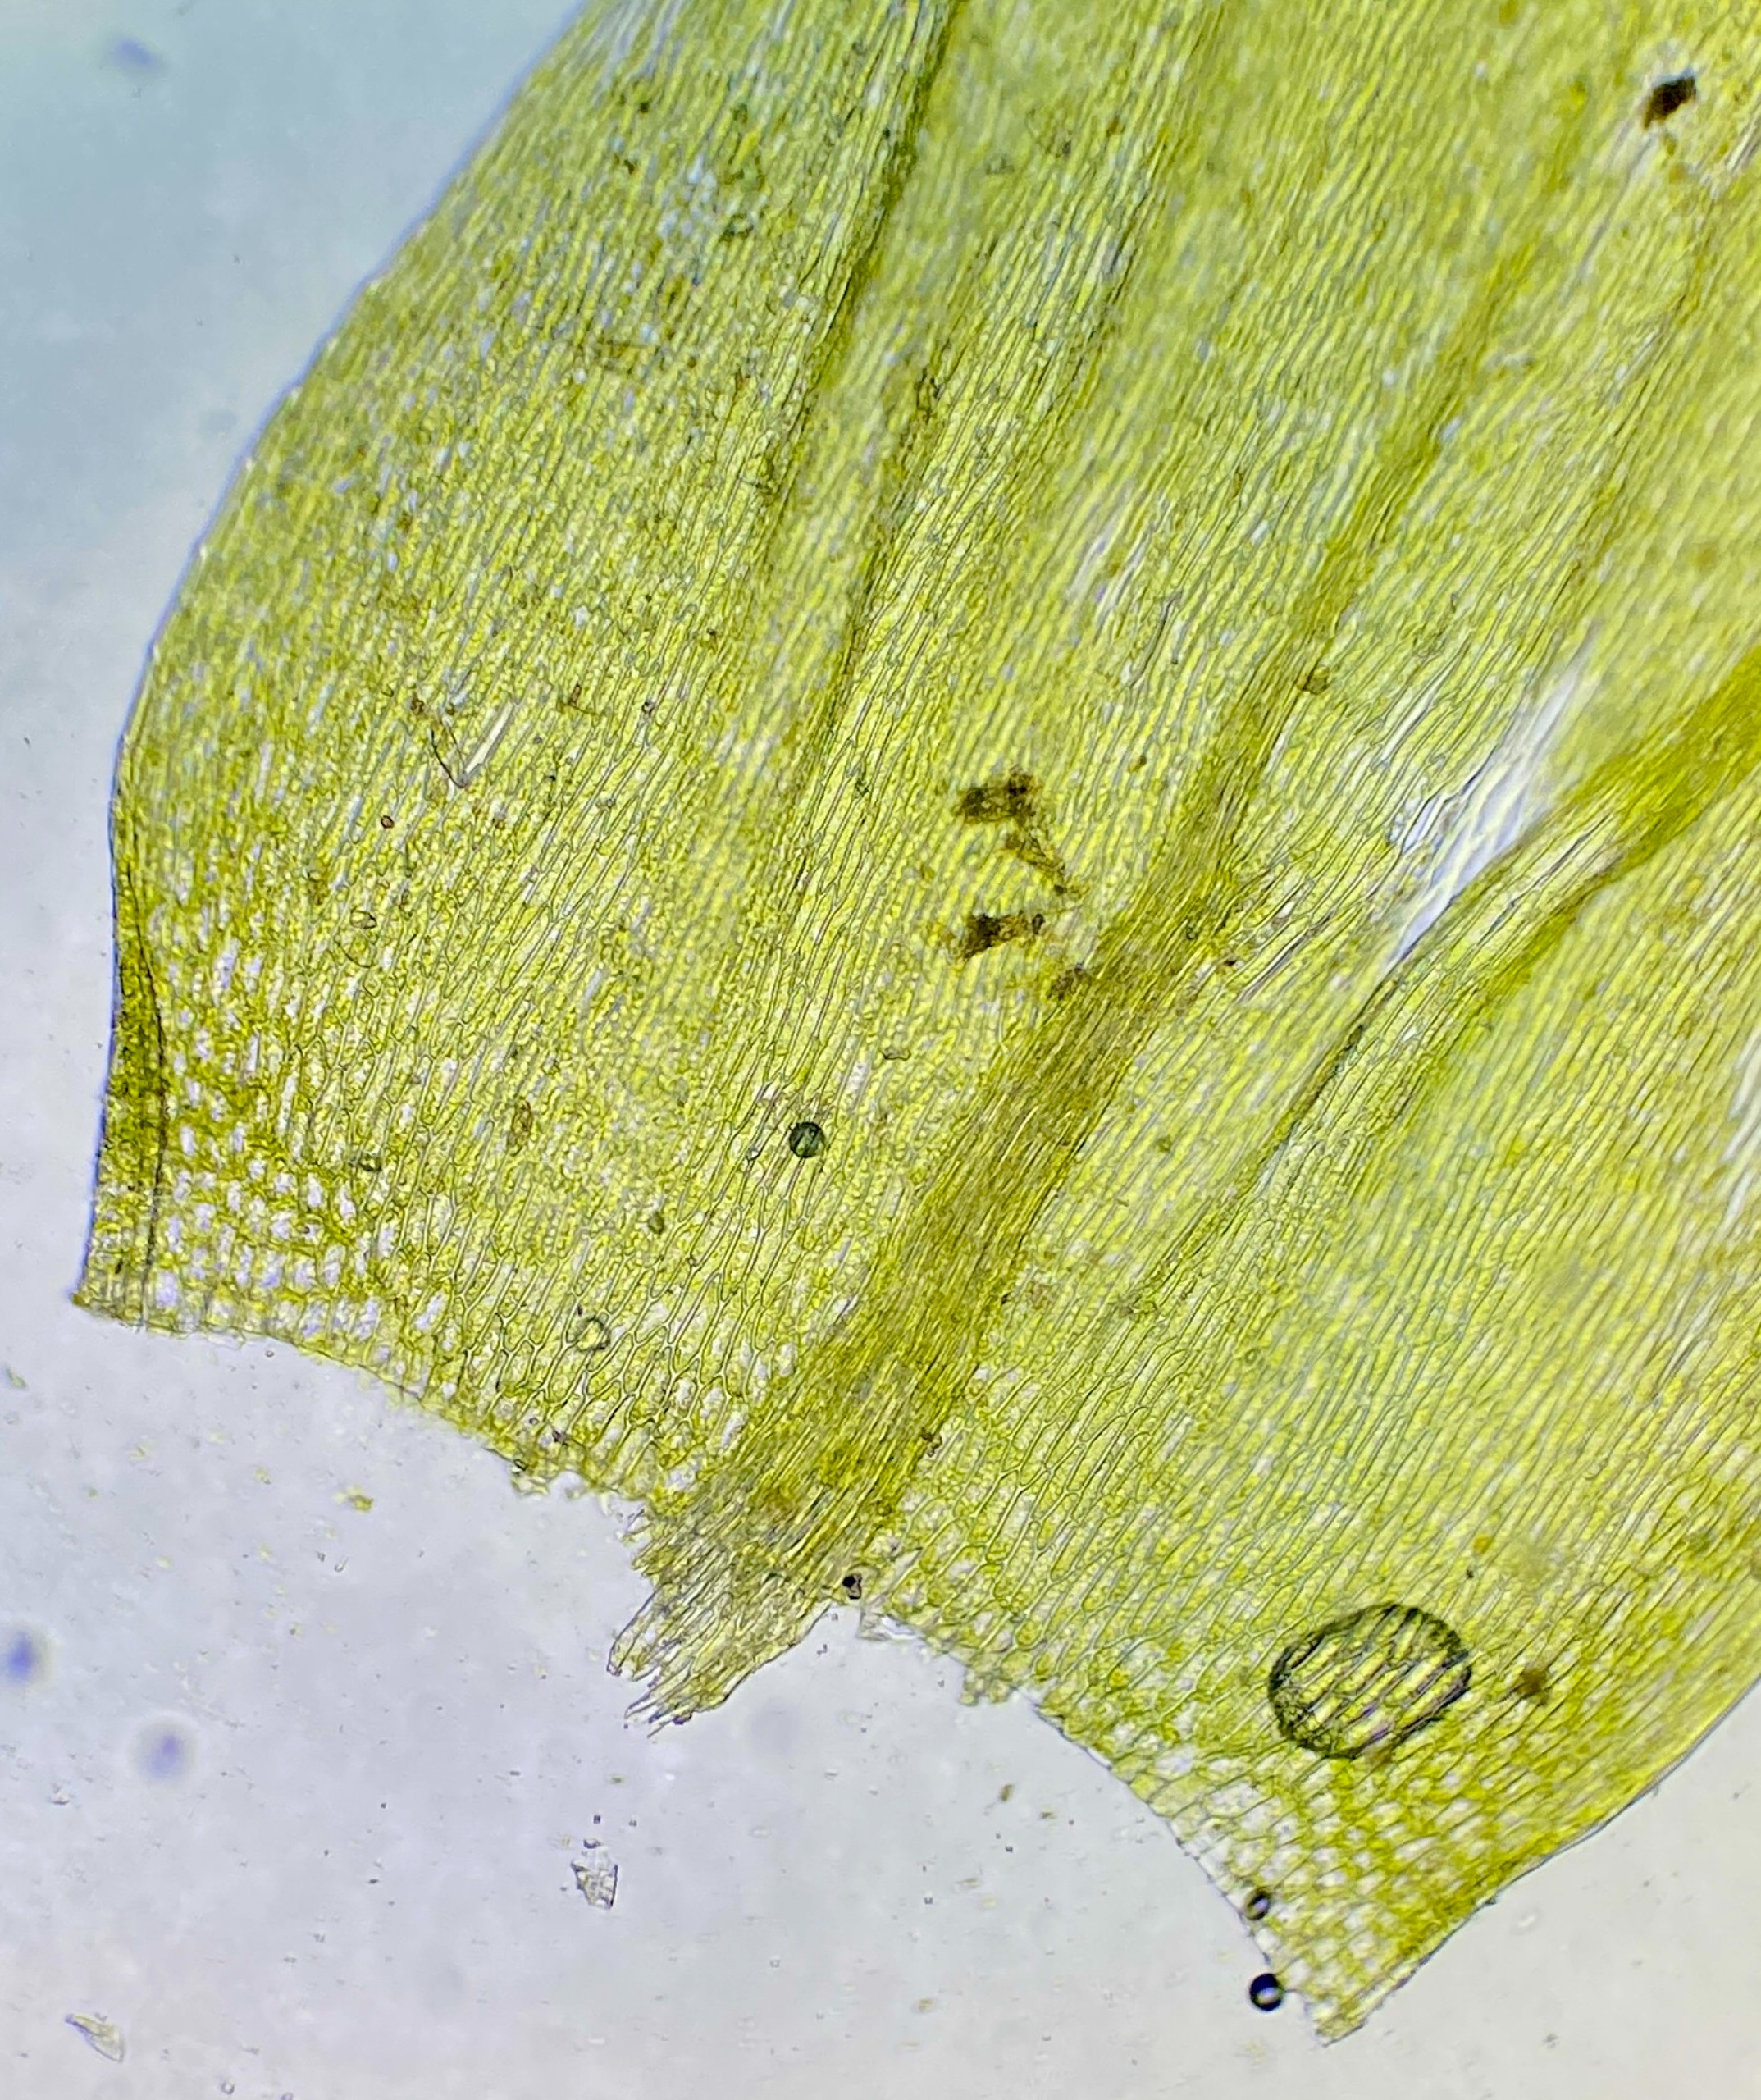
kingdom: Plantae
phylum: Bryophyta
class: Bryopsida
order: Hypnales
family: Brachytheciaceae
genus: Cirriphyllum
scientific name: Cirriphyllum piliferum
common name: Almindelig penselmos
